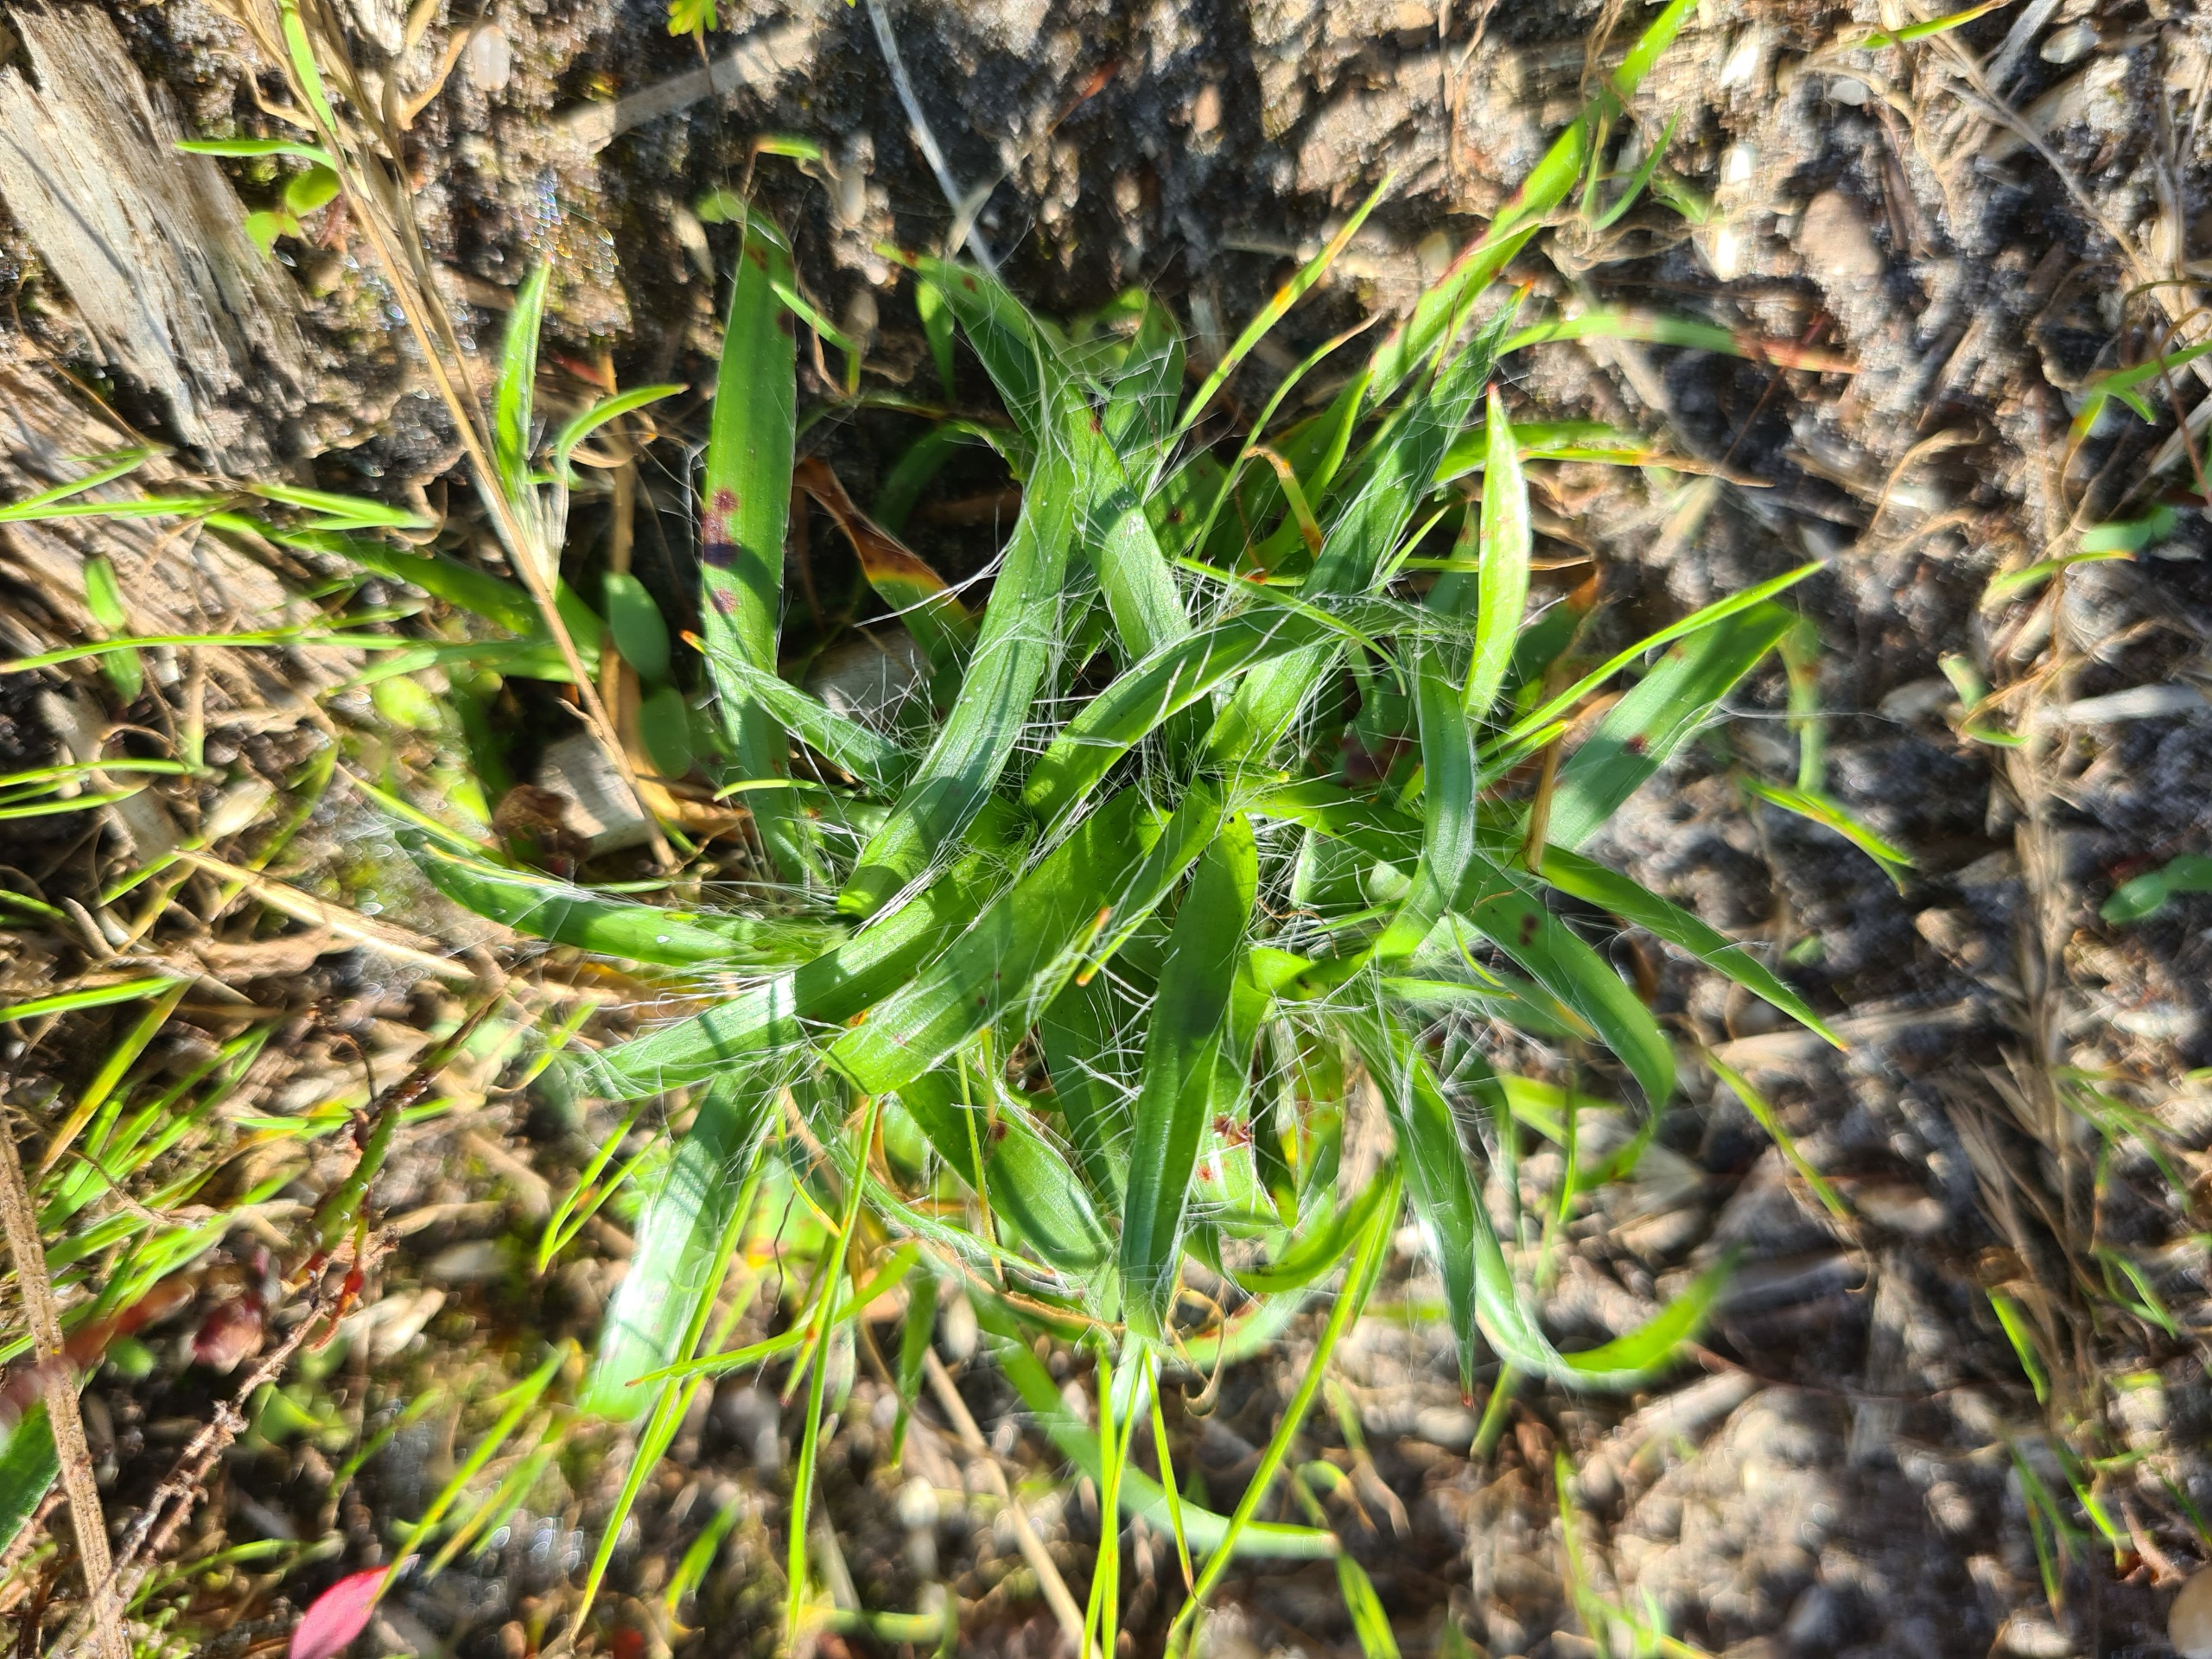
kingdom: Plantae
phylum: Tracheophyta
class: Liliopsida
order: Poales
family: Juncaceae
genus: Luzula
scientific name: Luzula campestris
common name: Mark-frytle
